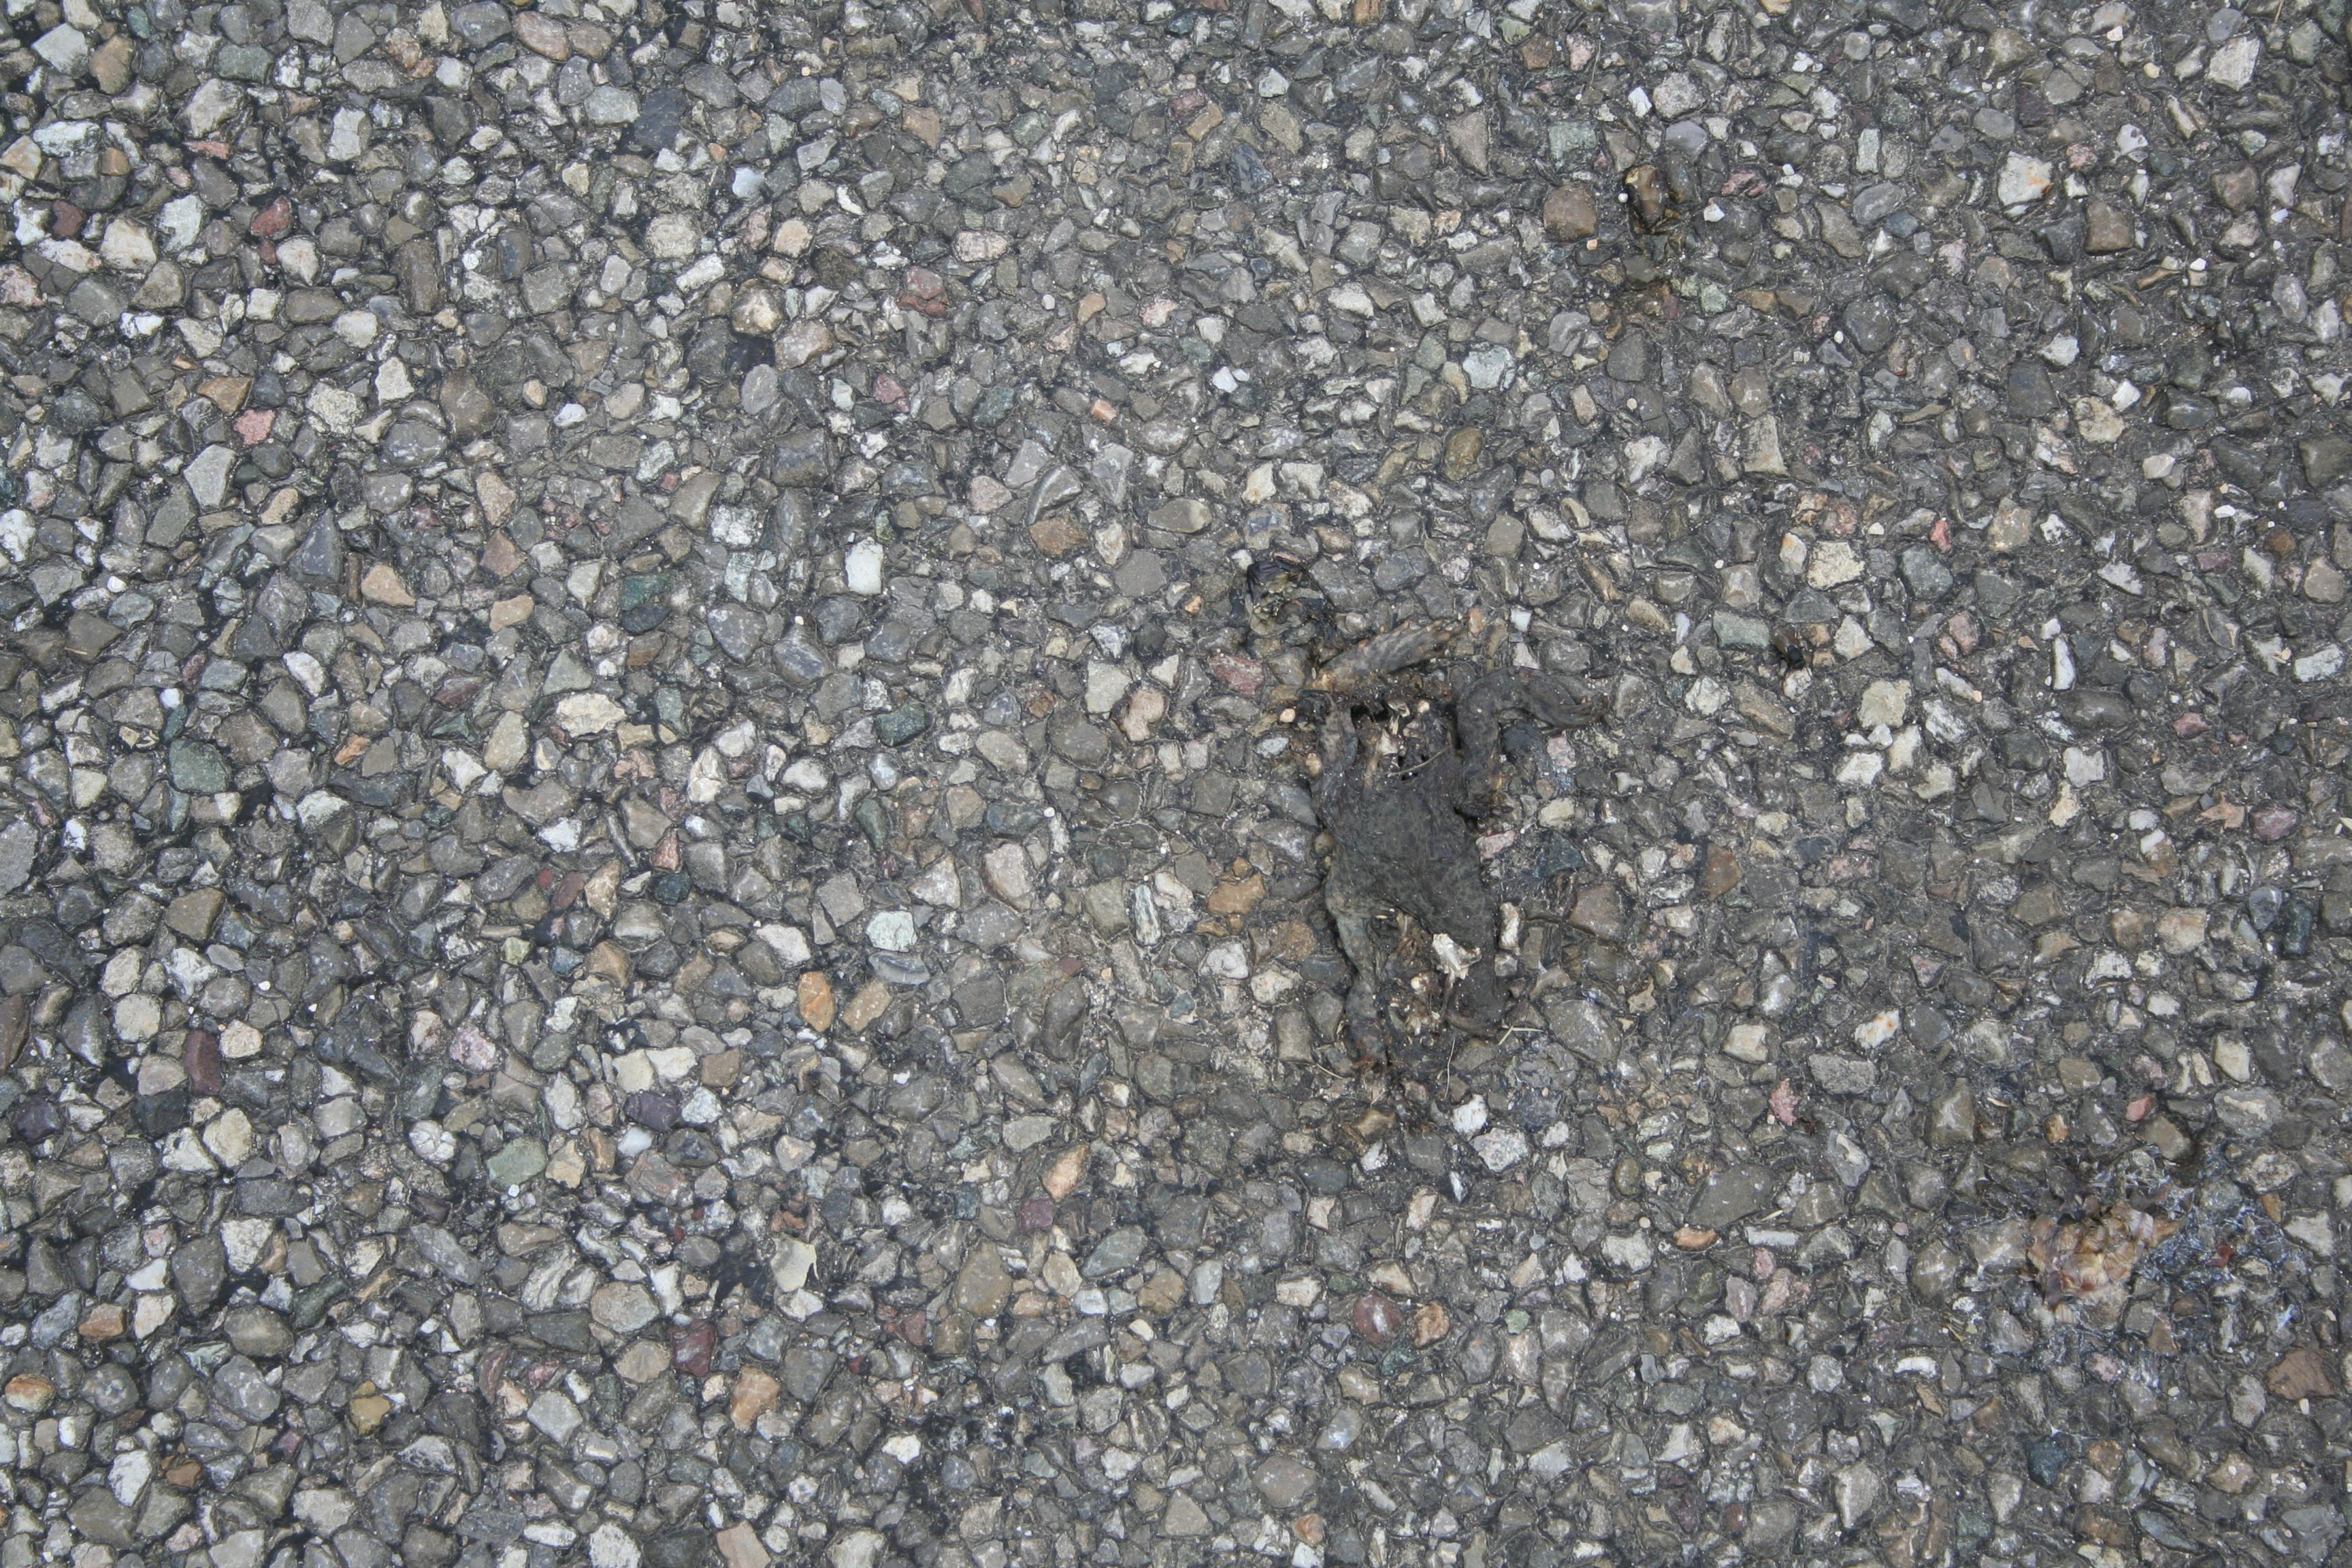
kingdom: Animalia
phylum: Chordata
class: Amphibia
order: Anura
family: Bufonidae
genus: Bufo
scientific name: Bufo bufo
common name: Common toad
